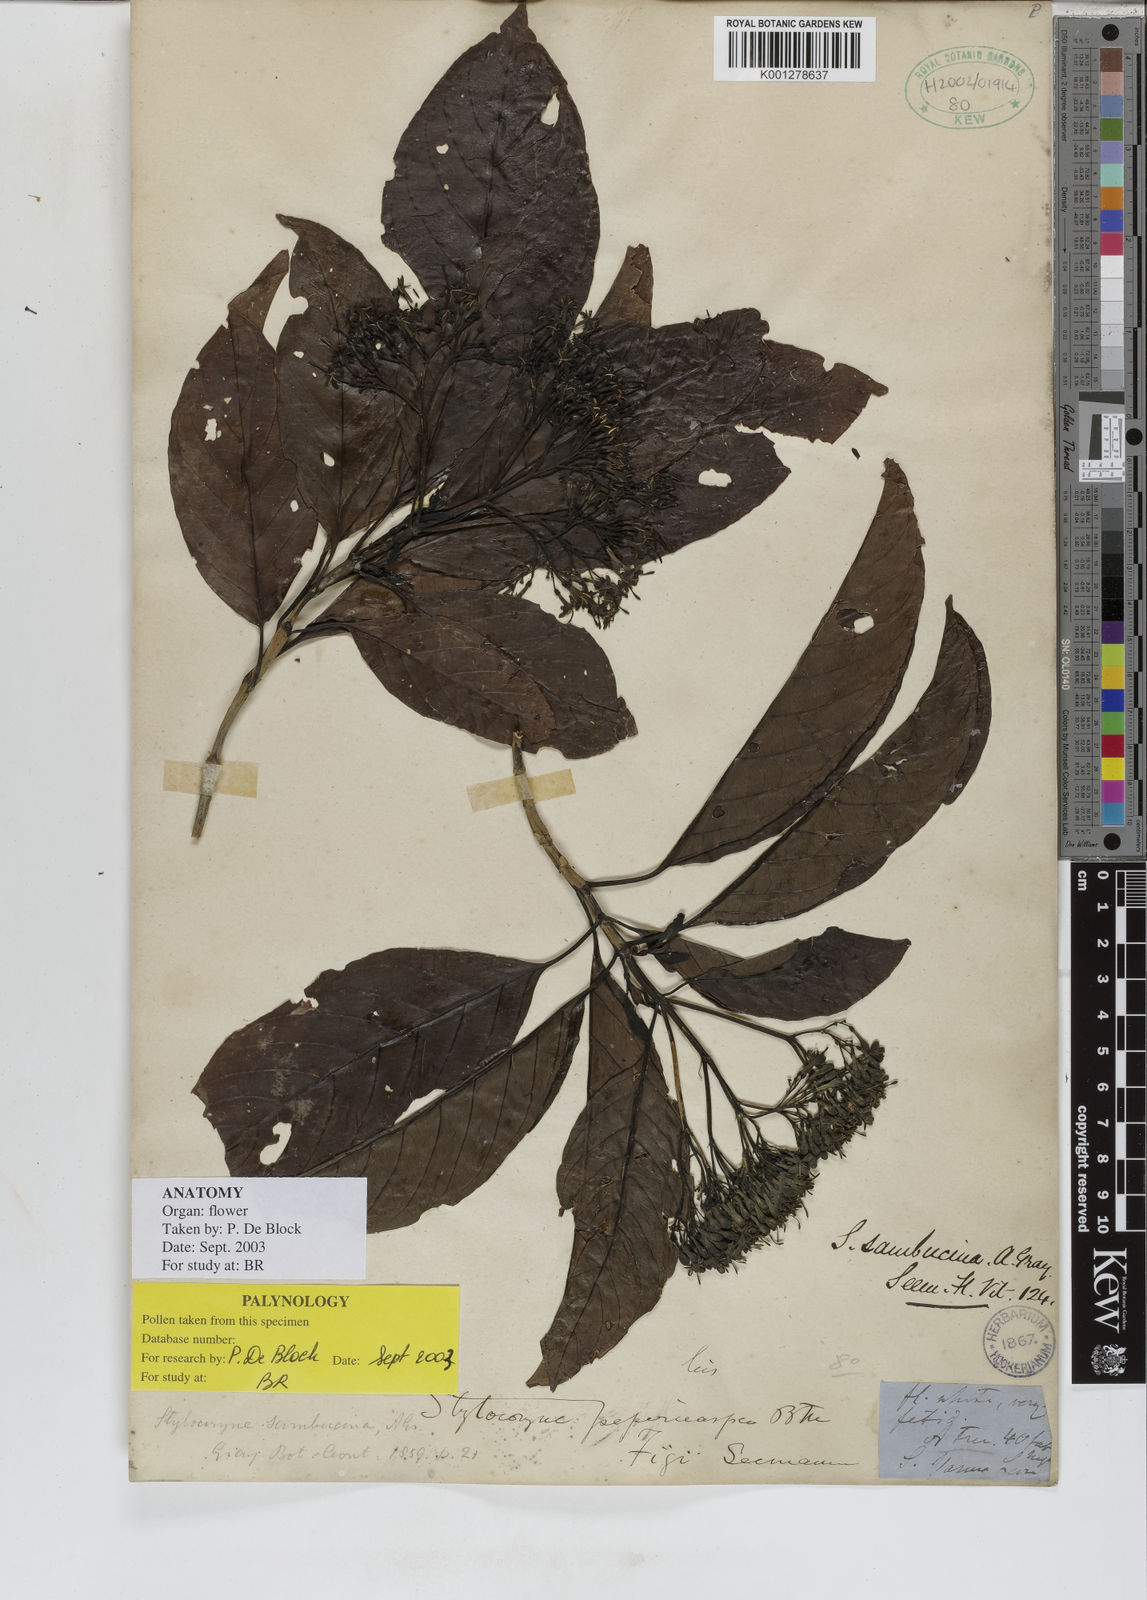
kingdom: Plantae
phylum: Tracheophyta
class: Magnoliopsida
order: Gentianales
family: Rubiaceae
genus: Tarenna
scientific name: Tarenna sambucina
